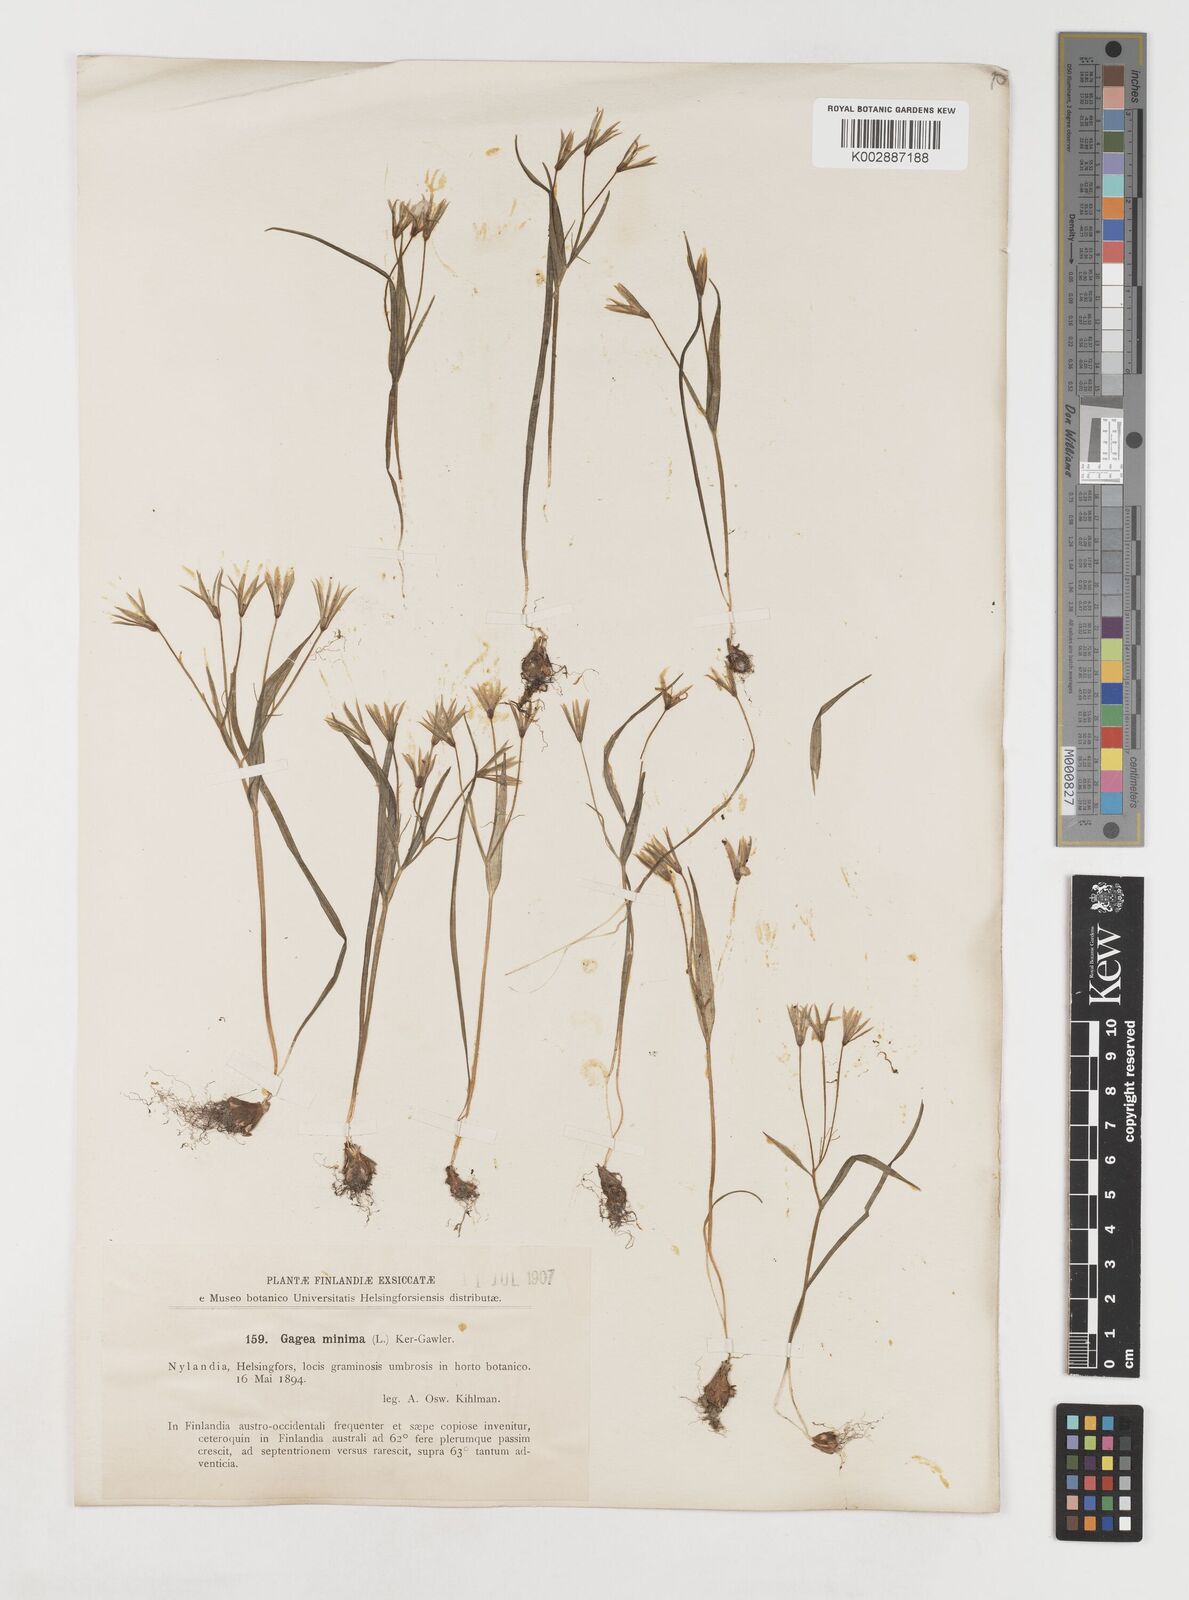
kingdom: Plantae
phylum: Tracheophyta
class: Liliopsida
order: Liliales
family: Liliaceae
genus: Gagea
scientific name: Gagea minima
